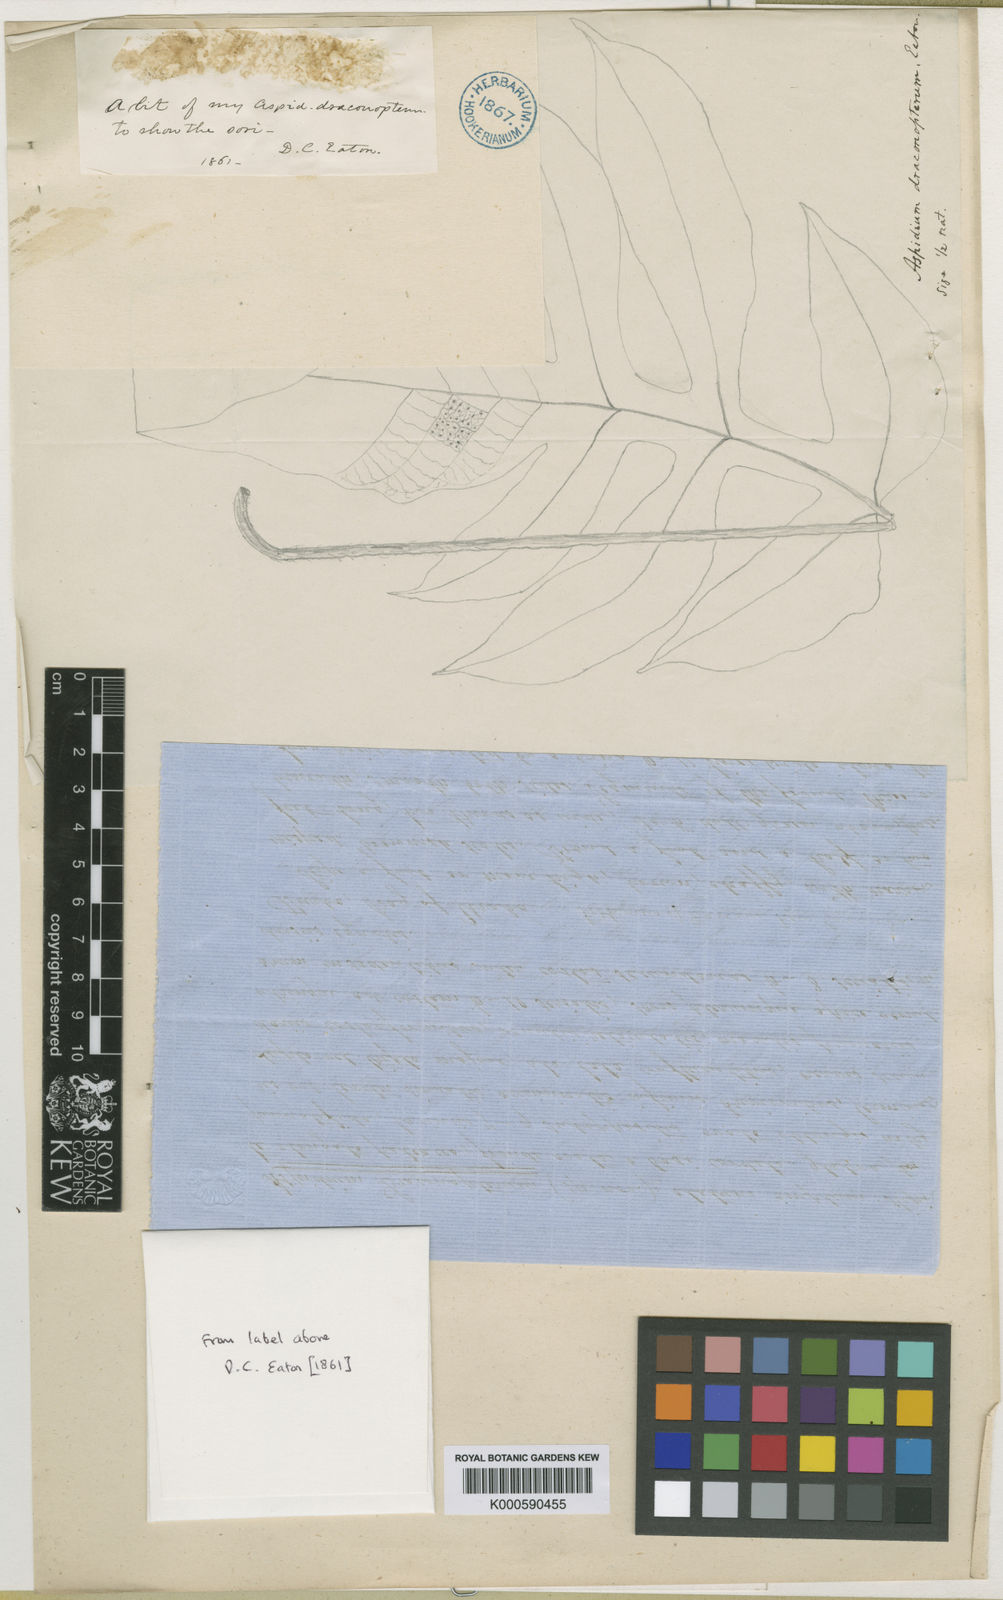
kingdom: Plantae
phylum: Tracheophyta
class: Polypodiopsida
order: Polypodiales
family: Tectariaceae
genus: Draconopteris
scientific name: Draconopteris draconoptera
